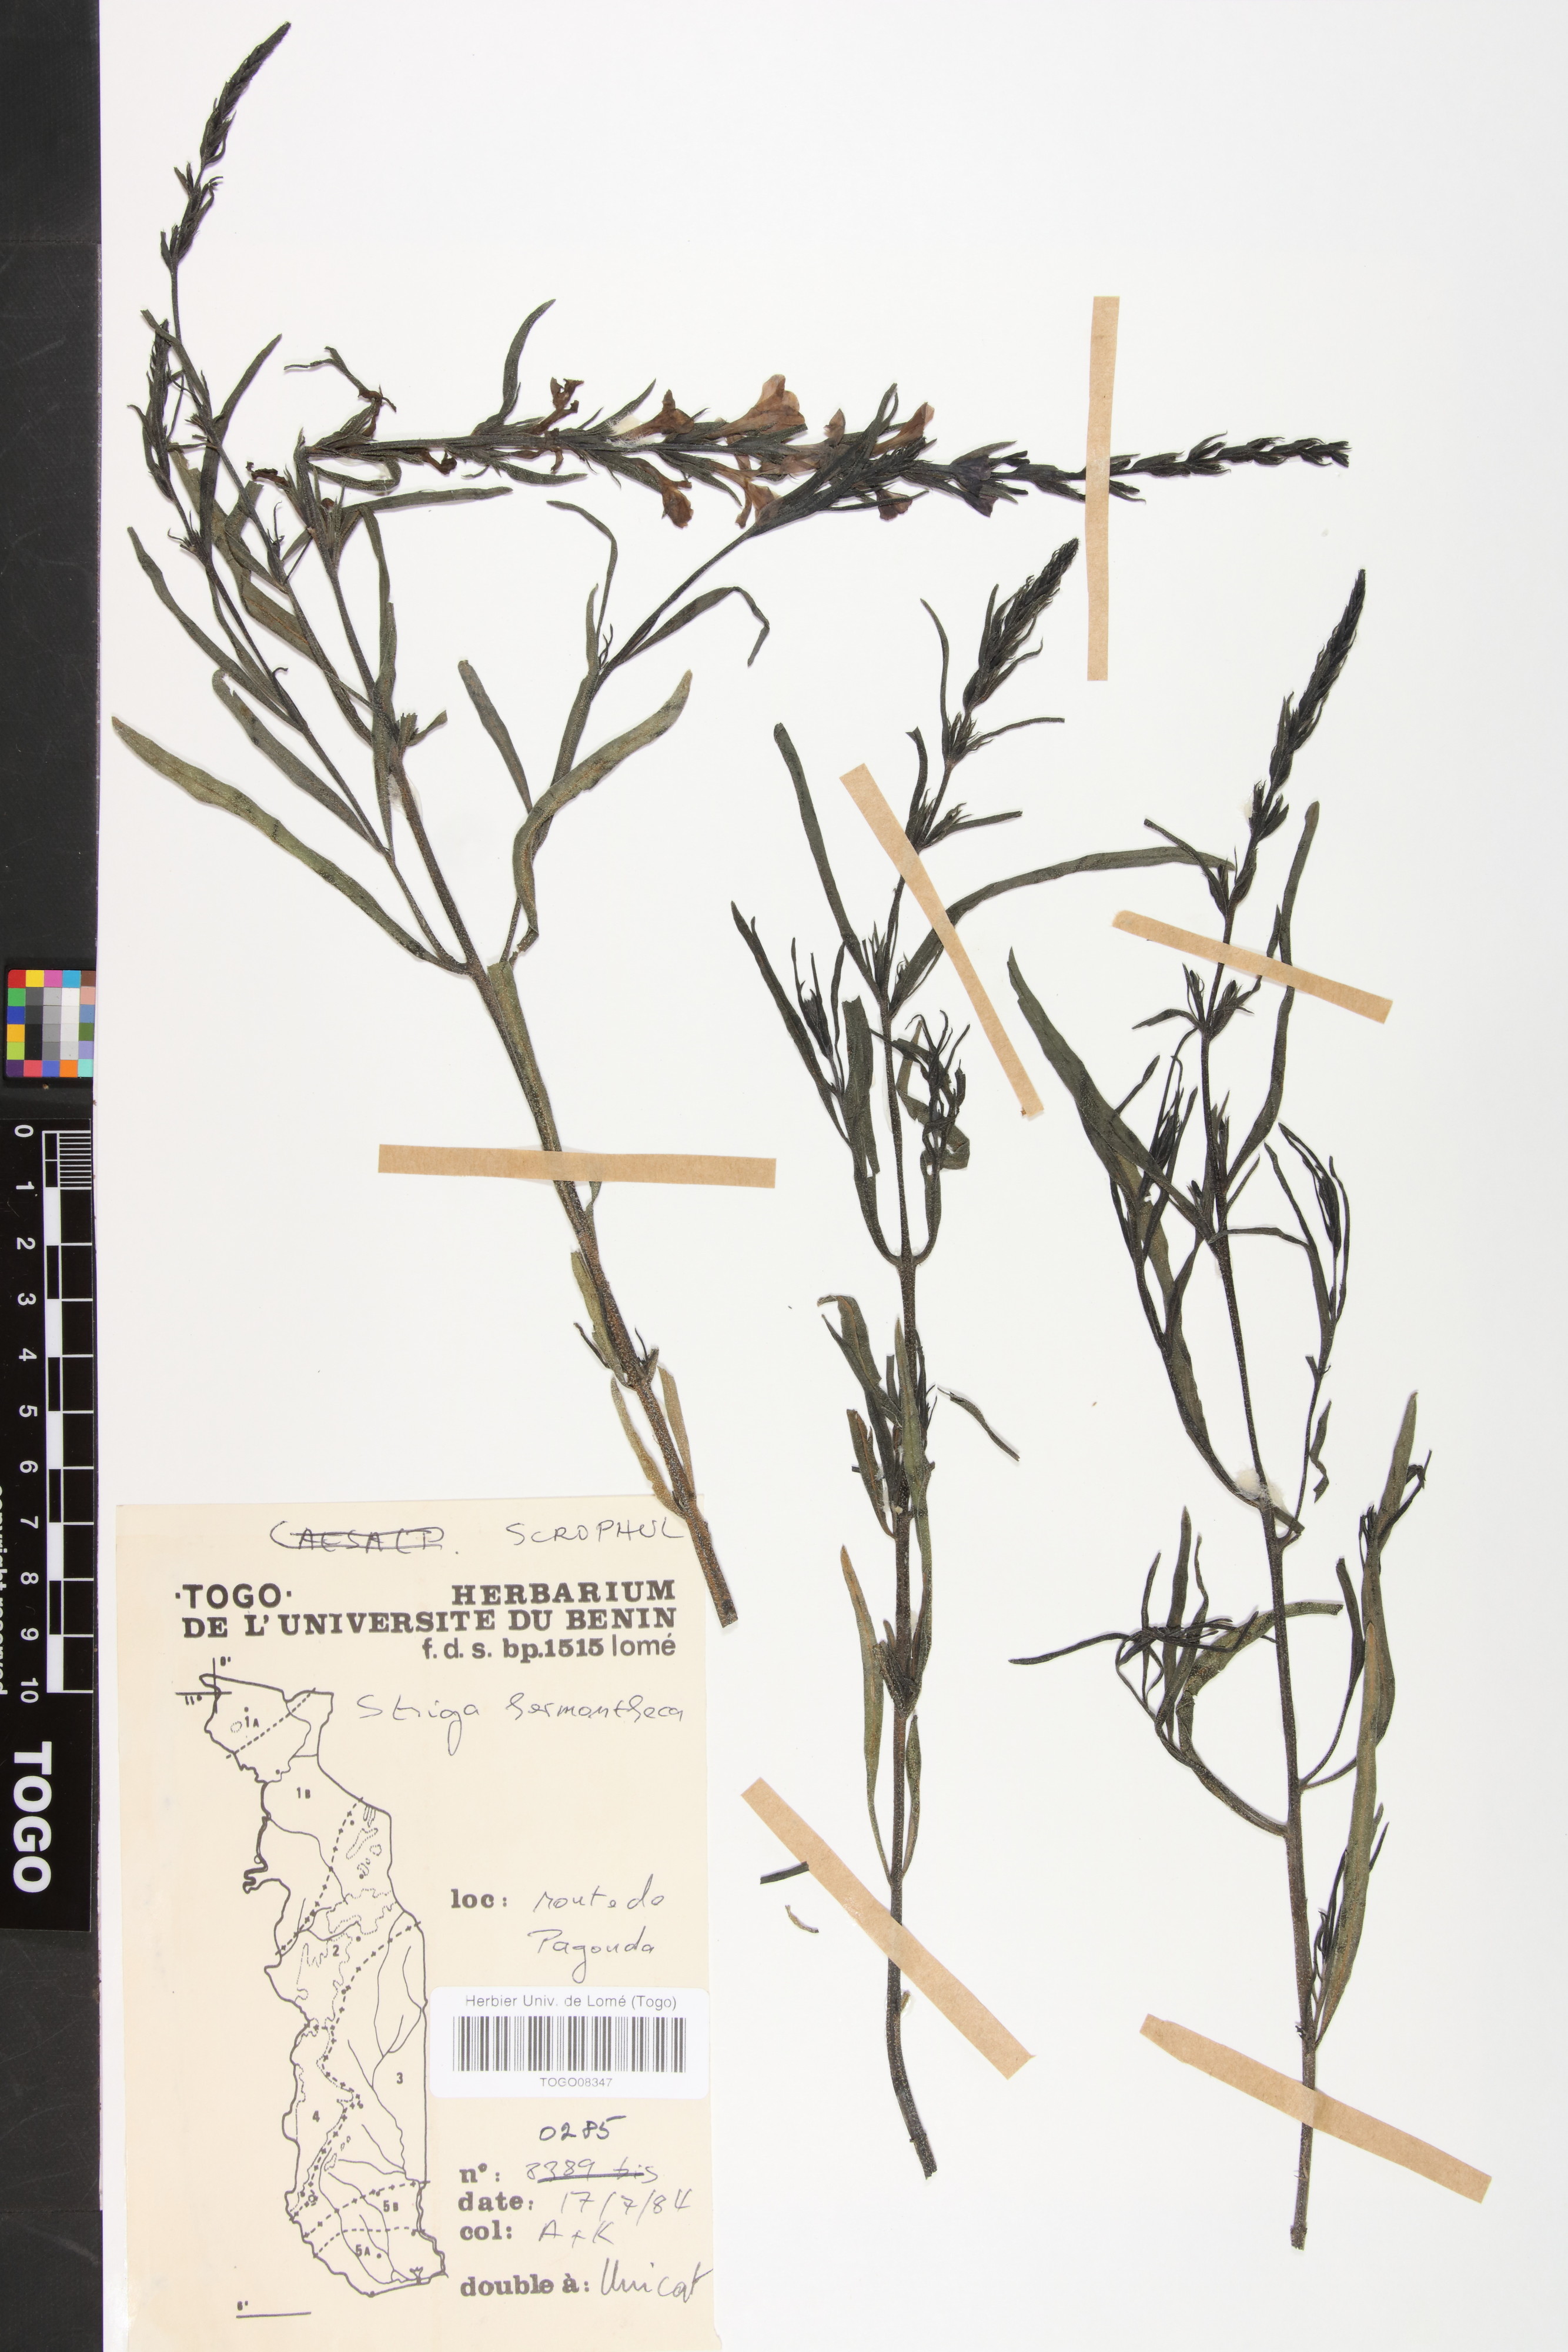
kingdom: Plantae
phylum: Tracheophyta
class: Magnoliopsida
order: Lamiales
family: Orobanchaceae
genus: Striga
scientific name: Striga hermonthica
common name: Purple witchweed
